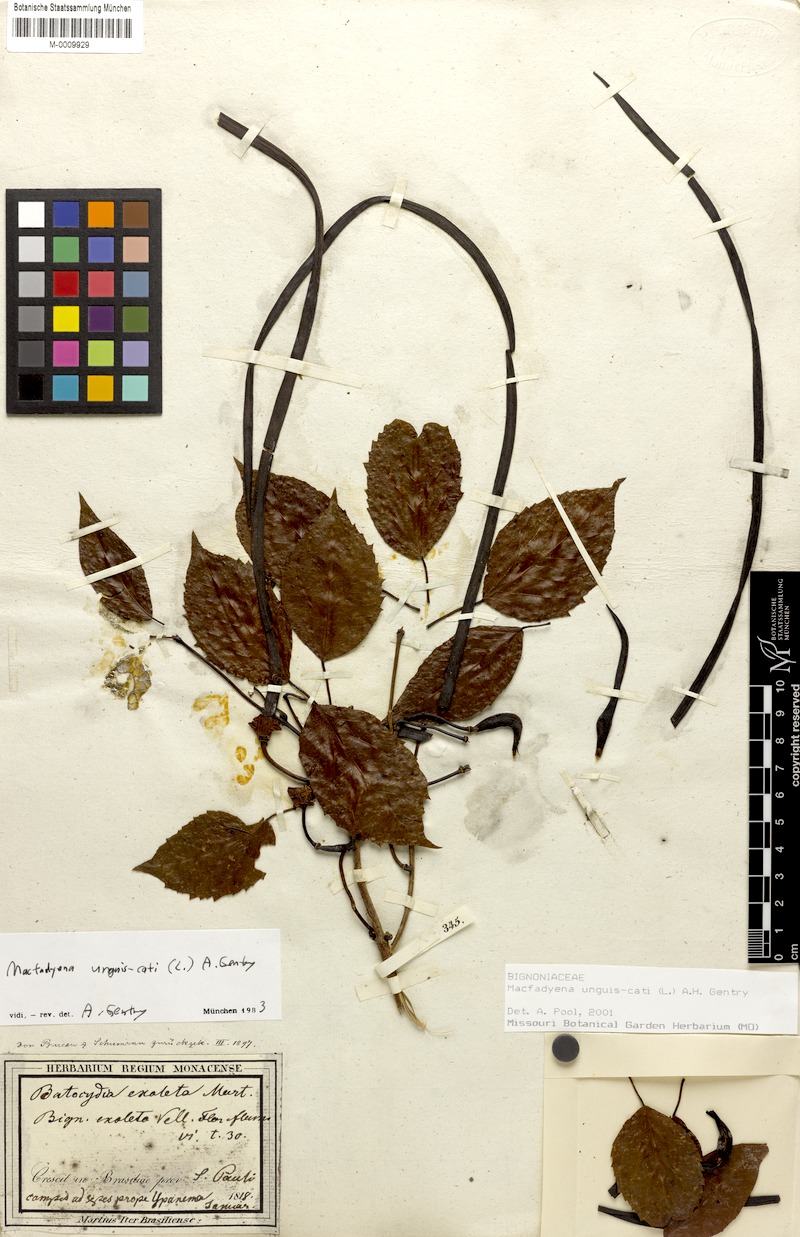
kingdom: Plantae
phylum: Tracheophyta
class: Magnoliopsida
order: Lamiales
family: Bignoniaceae
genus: Dolichandra
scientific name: Dolichandra unguis-cati
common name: Catclaw vine
